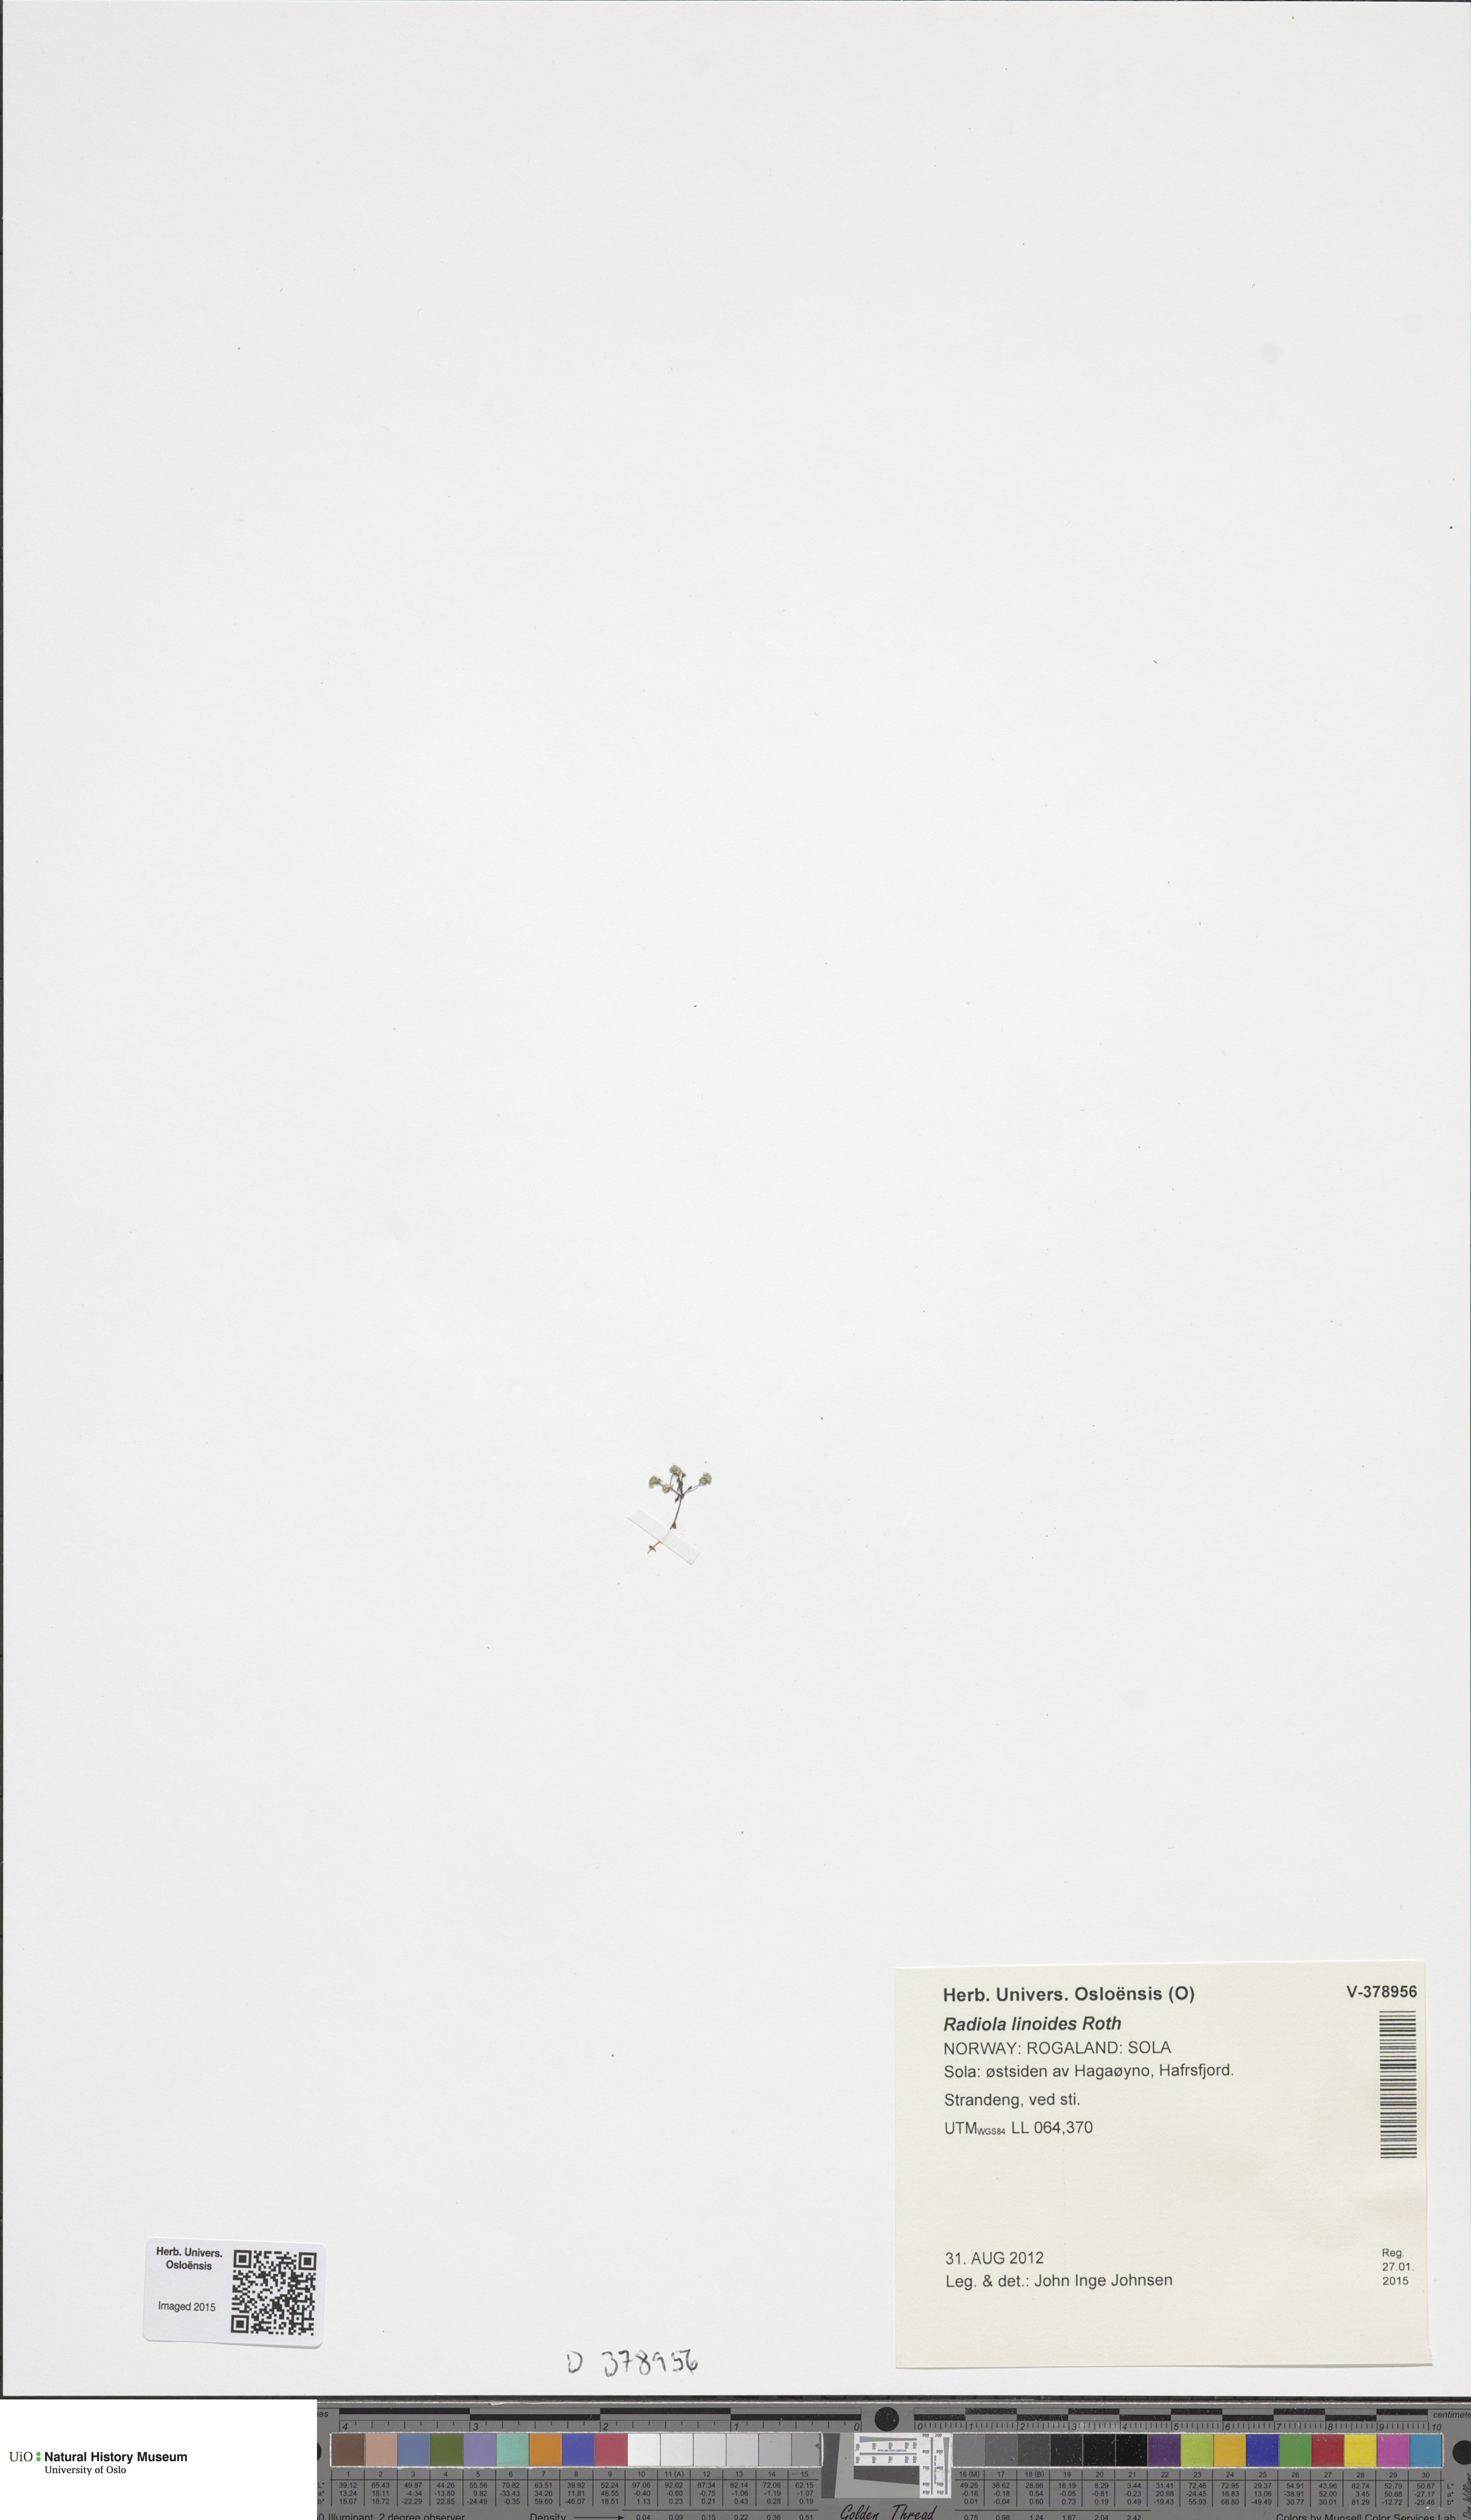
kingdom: Plantae
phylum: Tracheophyta
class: Magnoliopsida
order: Malpighiales
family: Linaceae
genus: Radiola
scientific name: Radiola linoides
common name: Allseed
